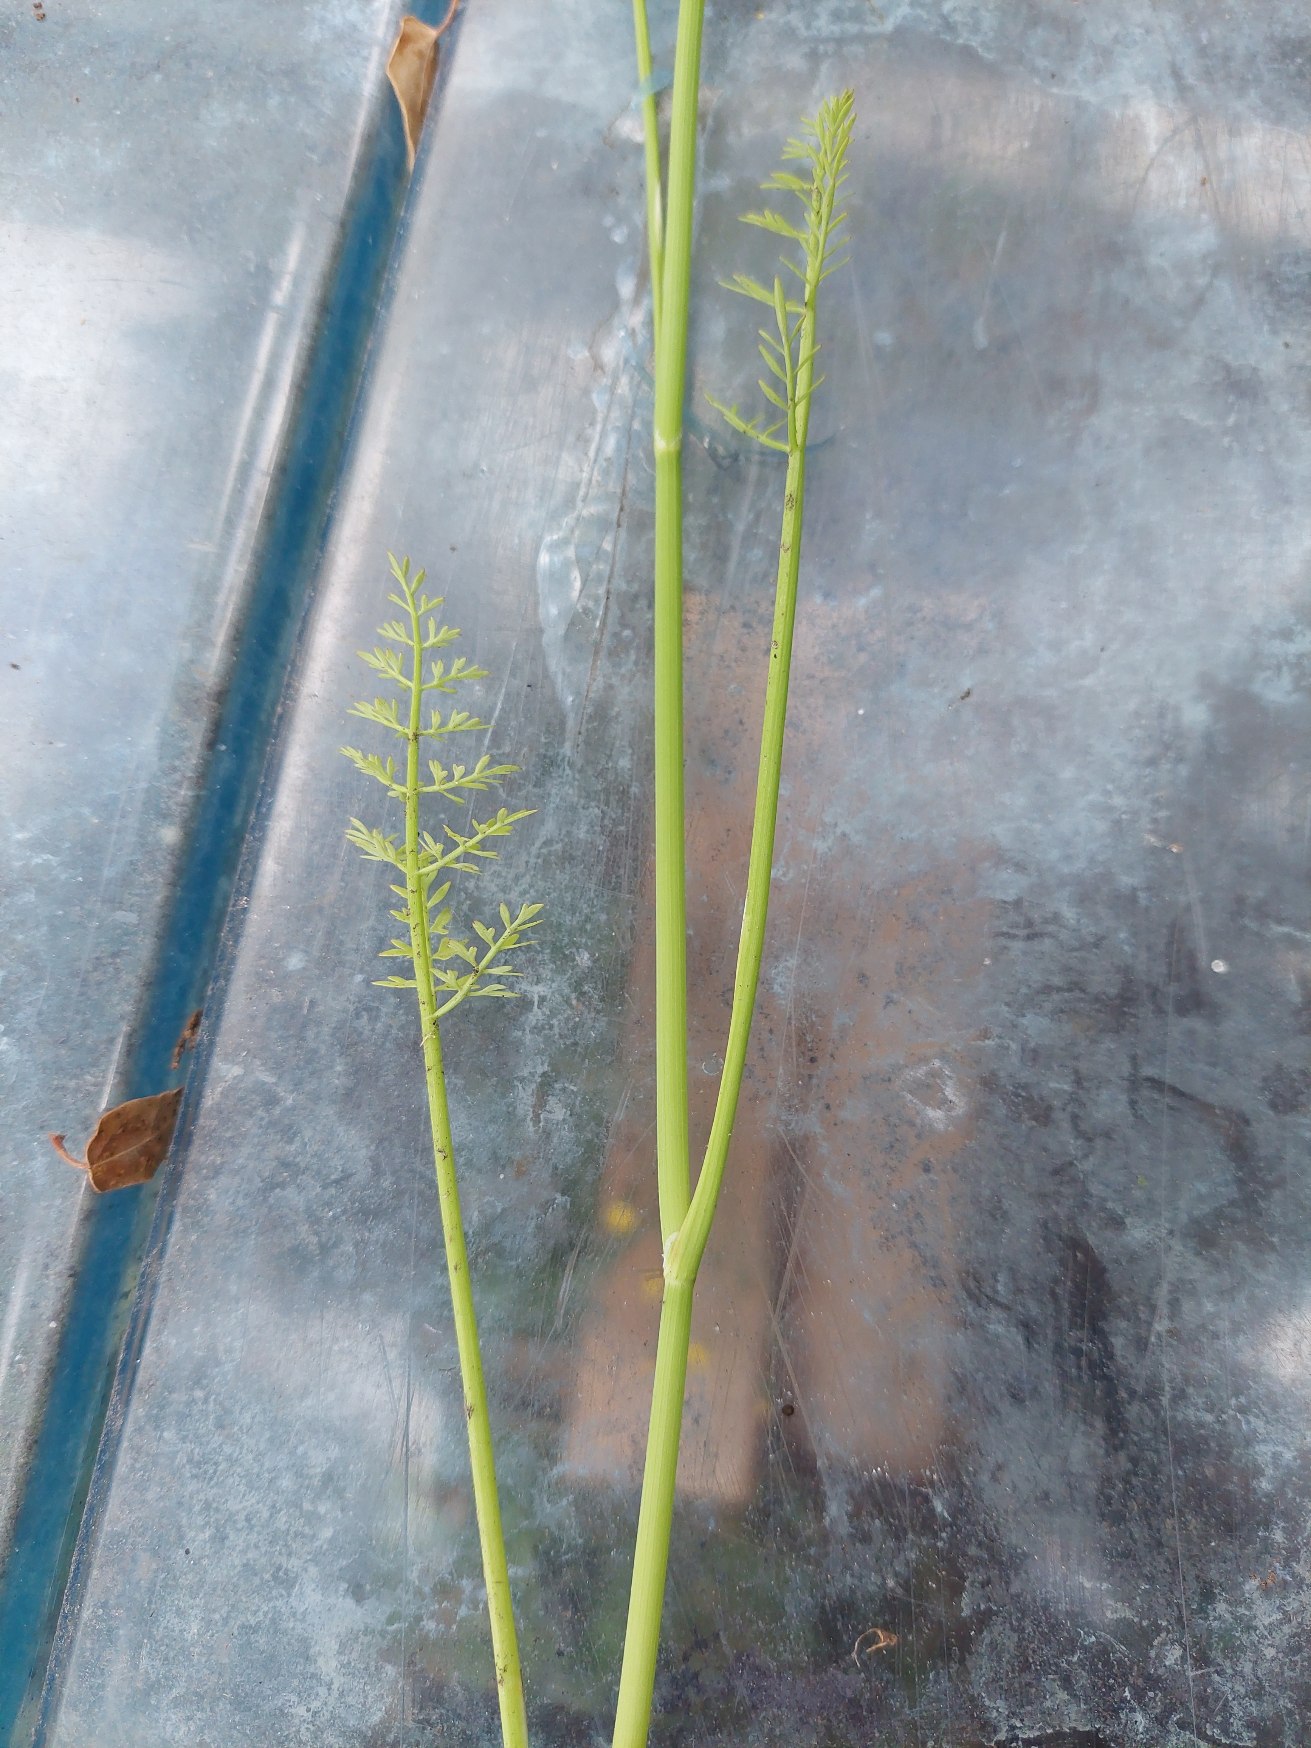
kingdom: Plantae
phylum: Tracheophyta
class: Magnoliopsida
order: Apiales
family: Apiaceae
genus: Oenanthe
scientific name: Oenanthe fistulosa
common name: Vand-klaseskærm
